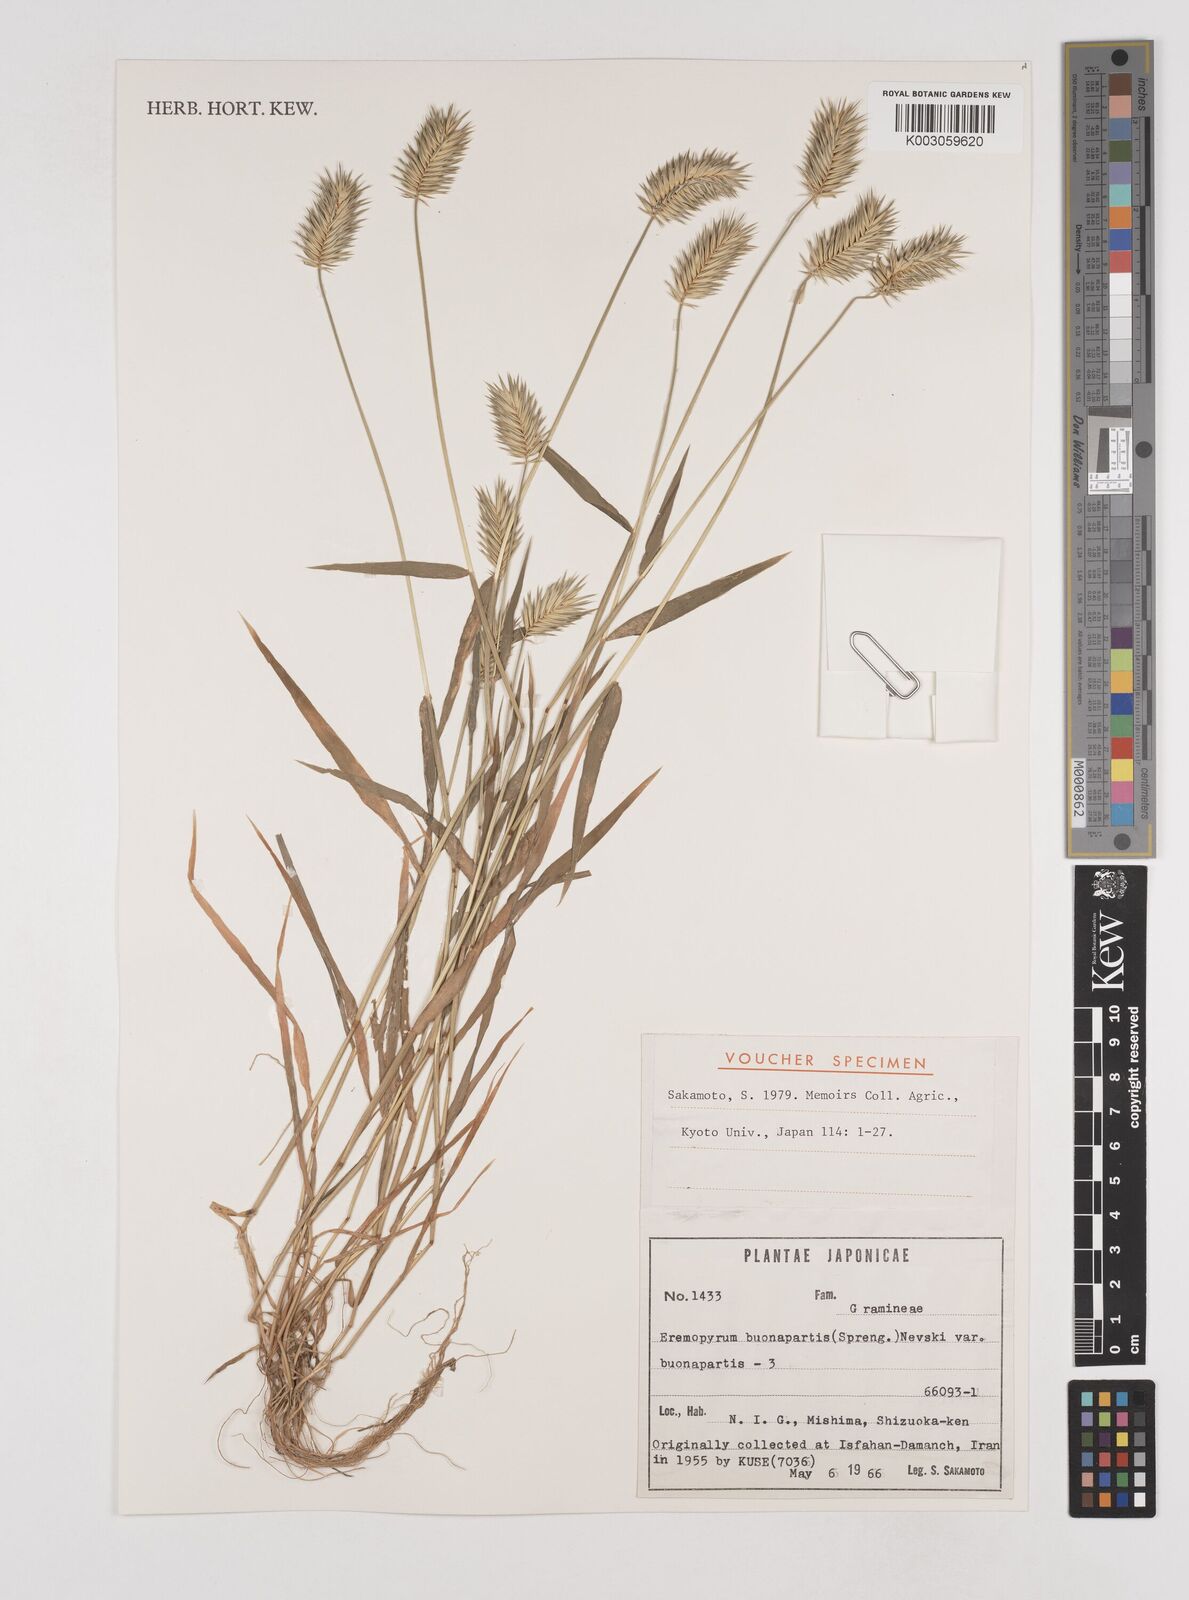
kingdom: Plantae
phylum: Tracheophyta
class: Liliopsida
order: Poales
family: Poaceae
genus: Eremopyrum
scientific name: Eremopyrum bonaepartis
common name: Tapertip false wheatgrass
